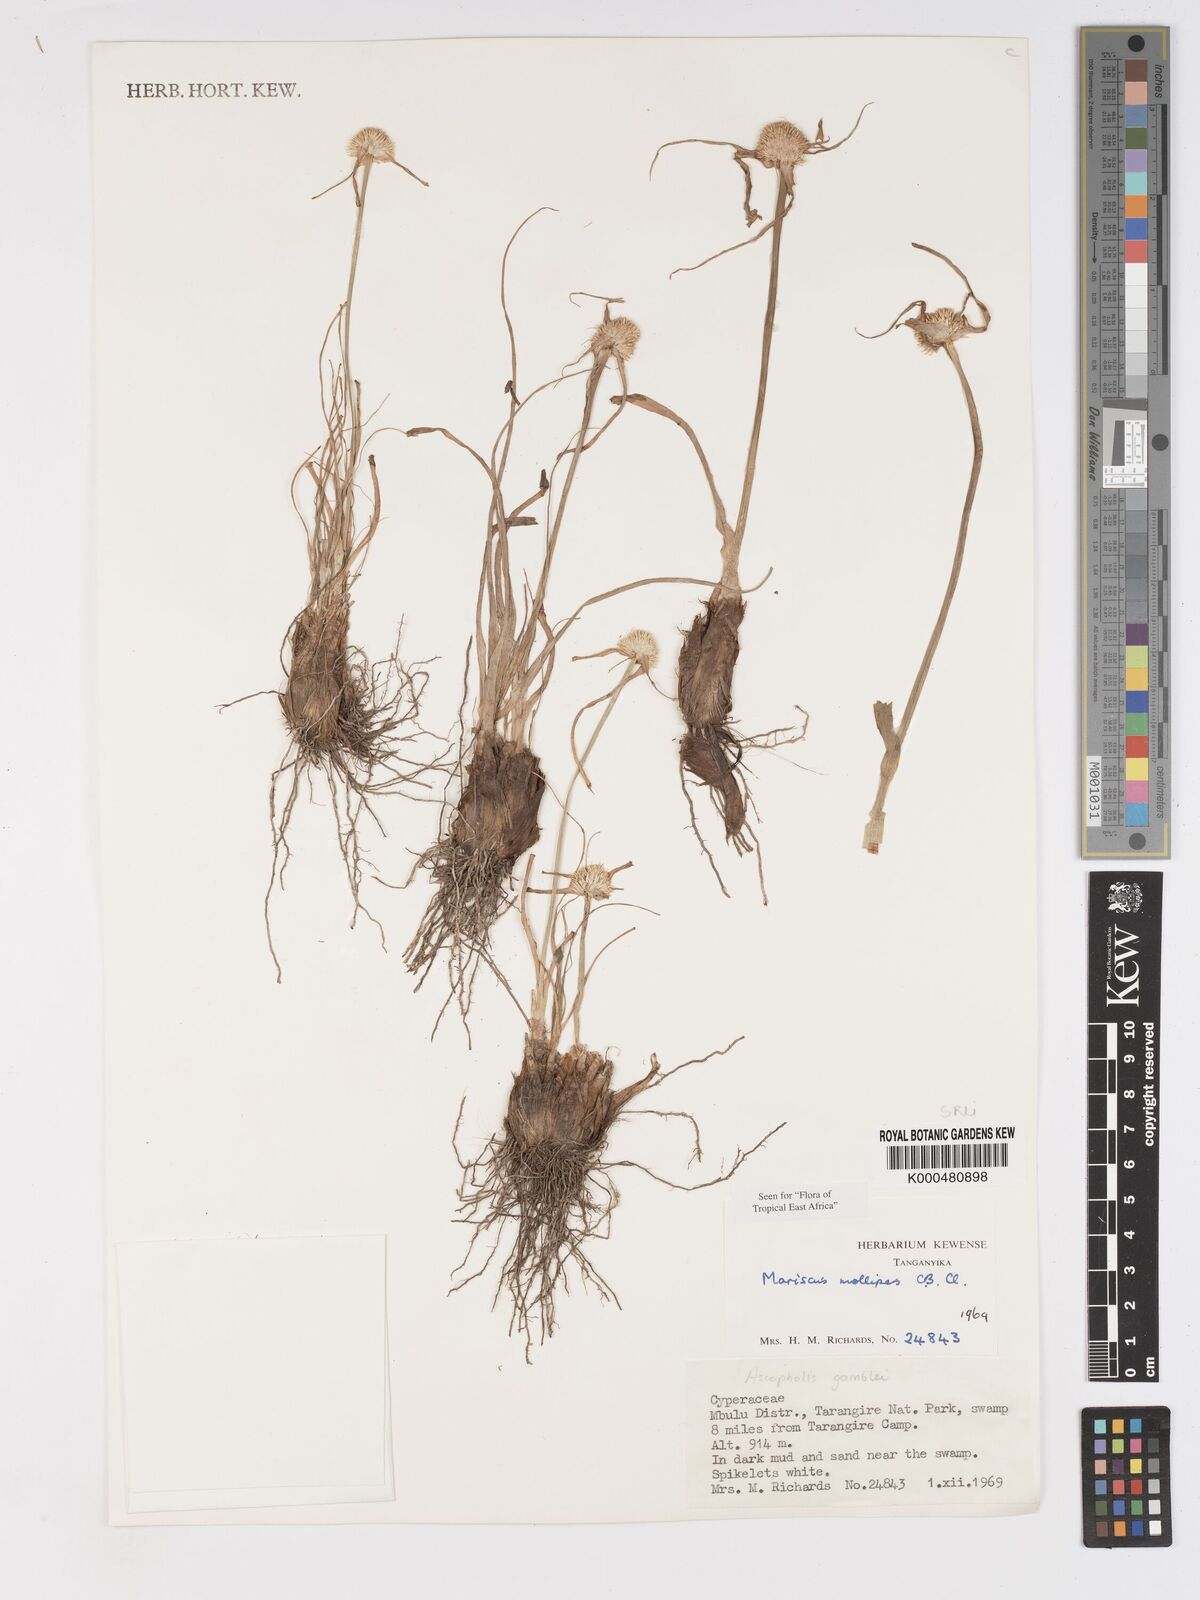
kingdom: Plantae
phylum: Tracheophyta
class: Liliopsida
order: Poales
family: Cyperaceae
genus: Cyperus
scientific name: Cyperus mollipes
